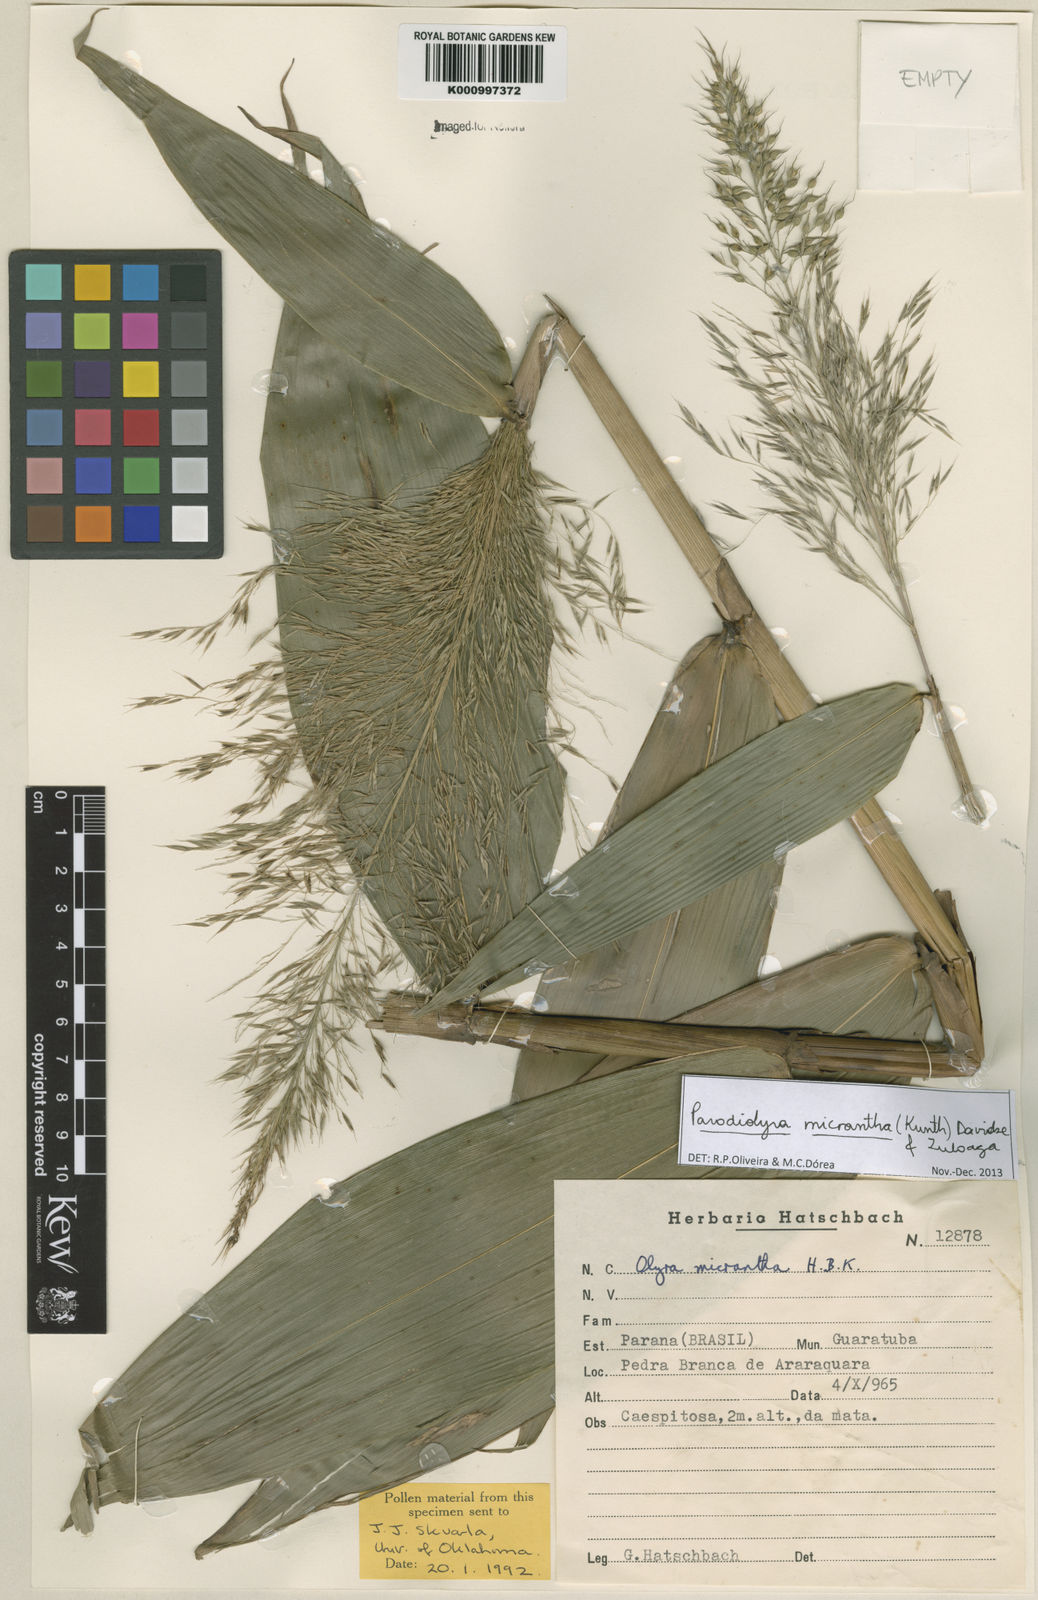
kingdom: Plantae
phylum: Tracheophyta
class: Liliopsida
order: Poales
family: Poaceae
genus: Taquara
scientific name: Taquara micrantha
